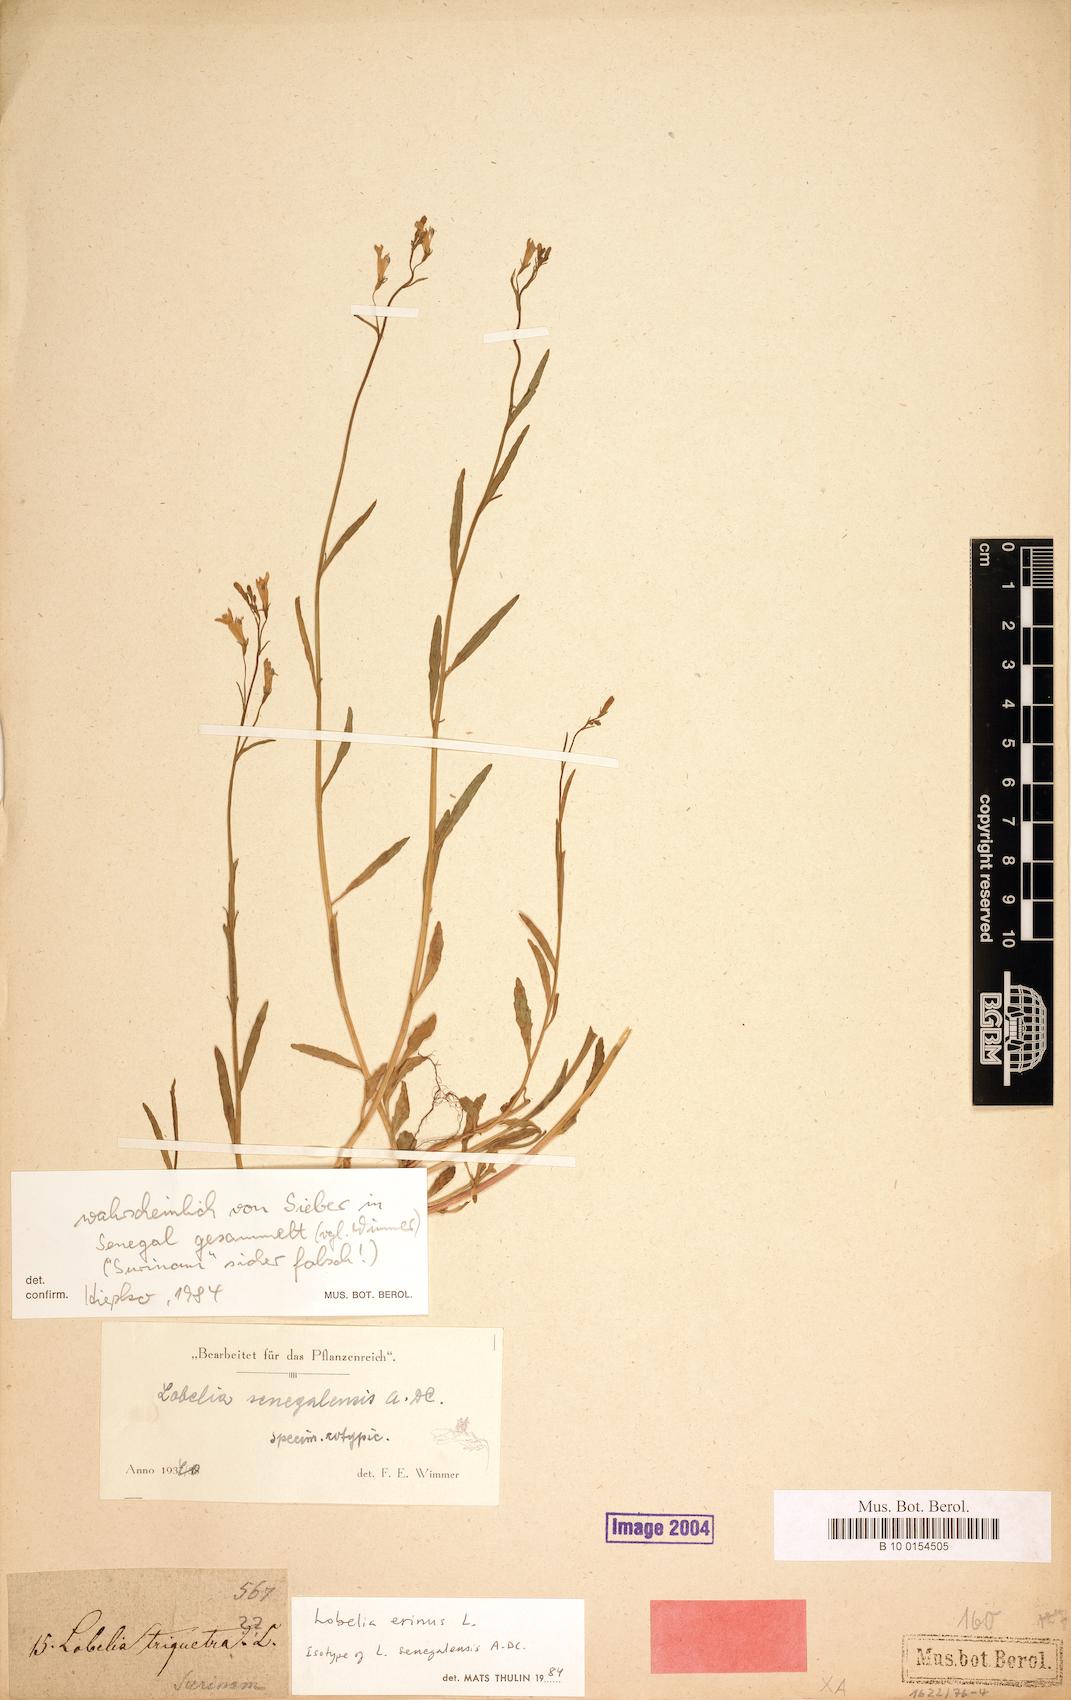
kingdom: Plantae
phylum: Tracheophyta
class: Magnoliopsida
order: Asterales
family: Campanulaceae
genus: Lobelia
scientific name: Lobelia erinus
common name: Edging lobelia
